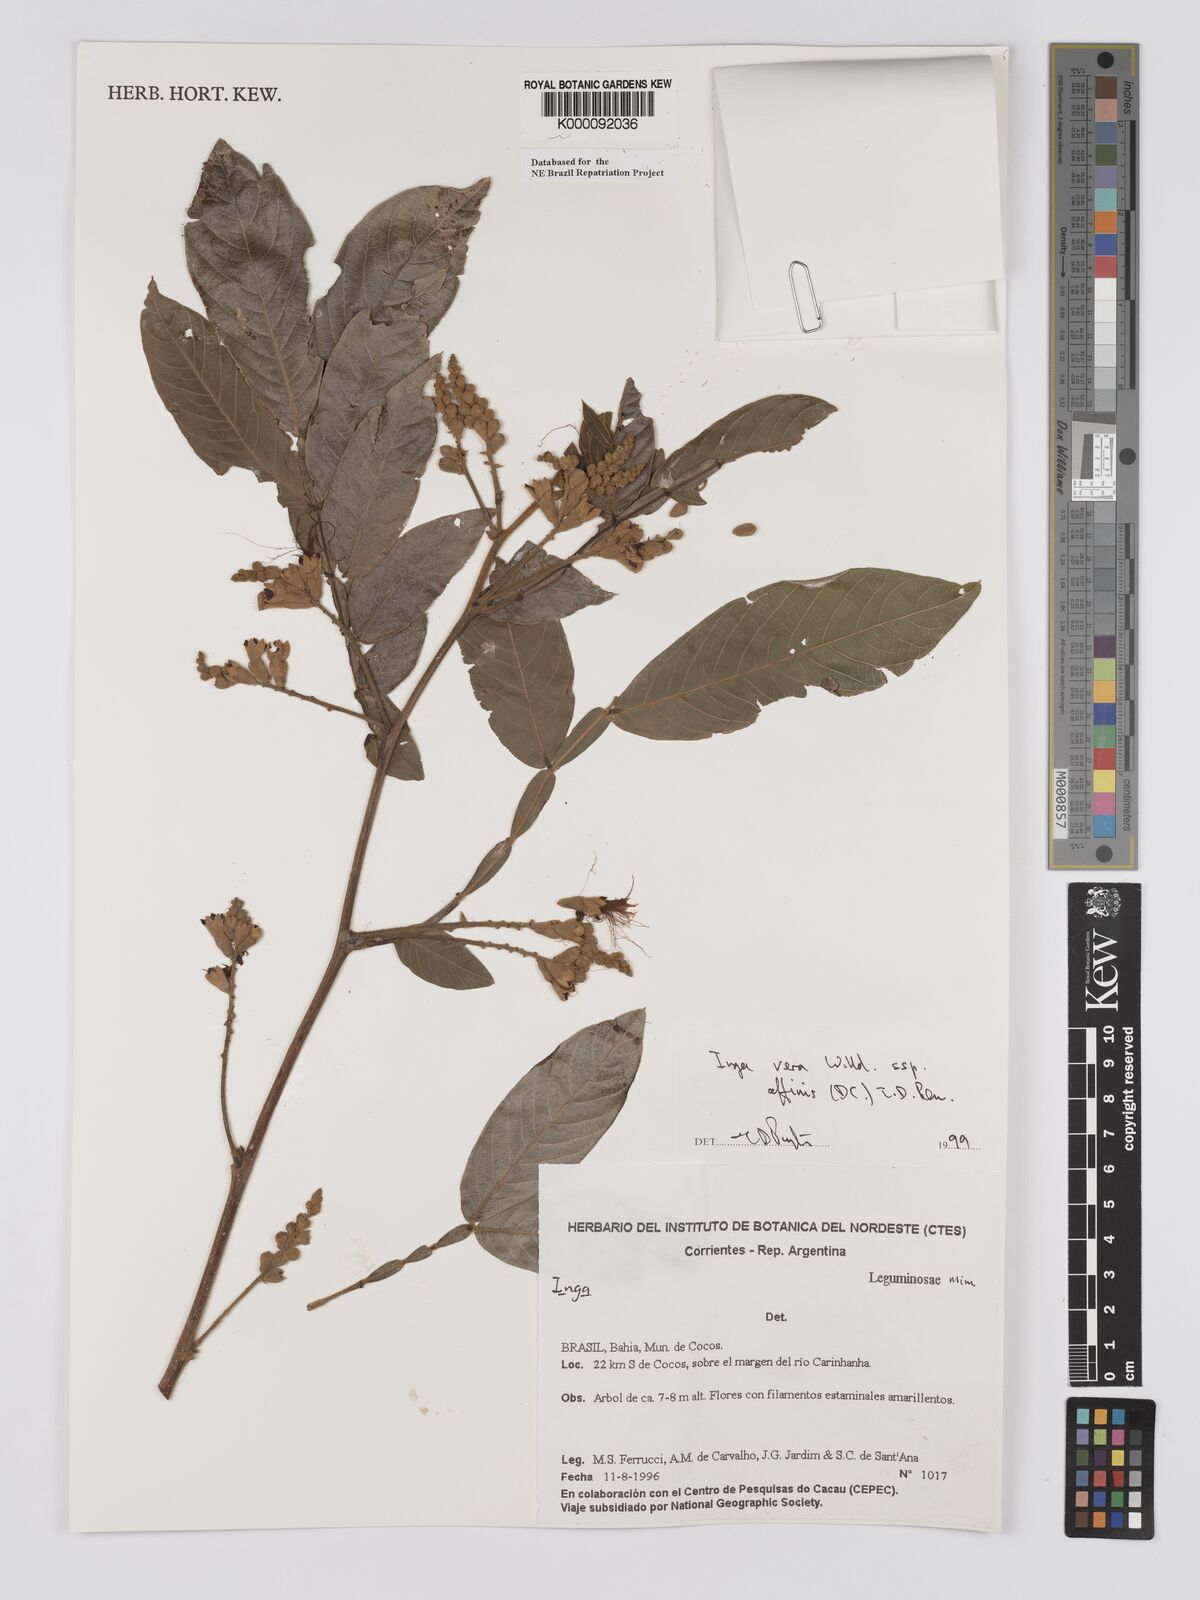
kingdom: Plantae
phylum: Tracheophyta
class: Magnoliopsida
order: Fabales
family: Fabaceae
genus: Inga
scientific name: Inga affinis
